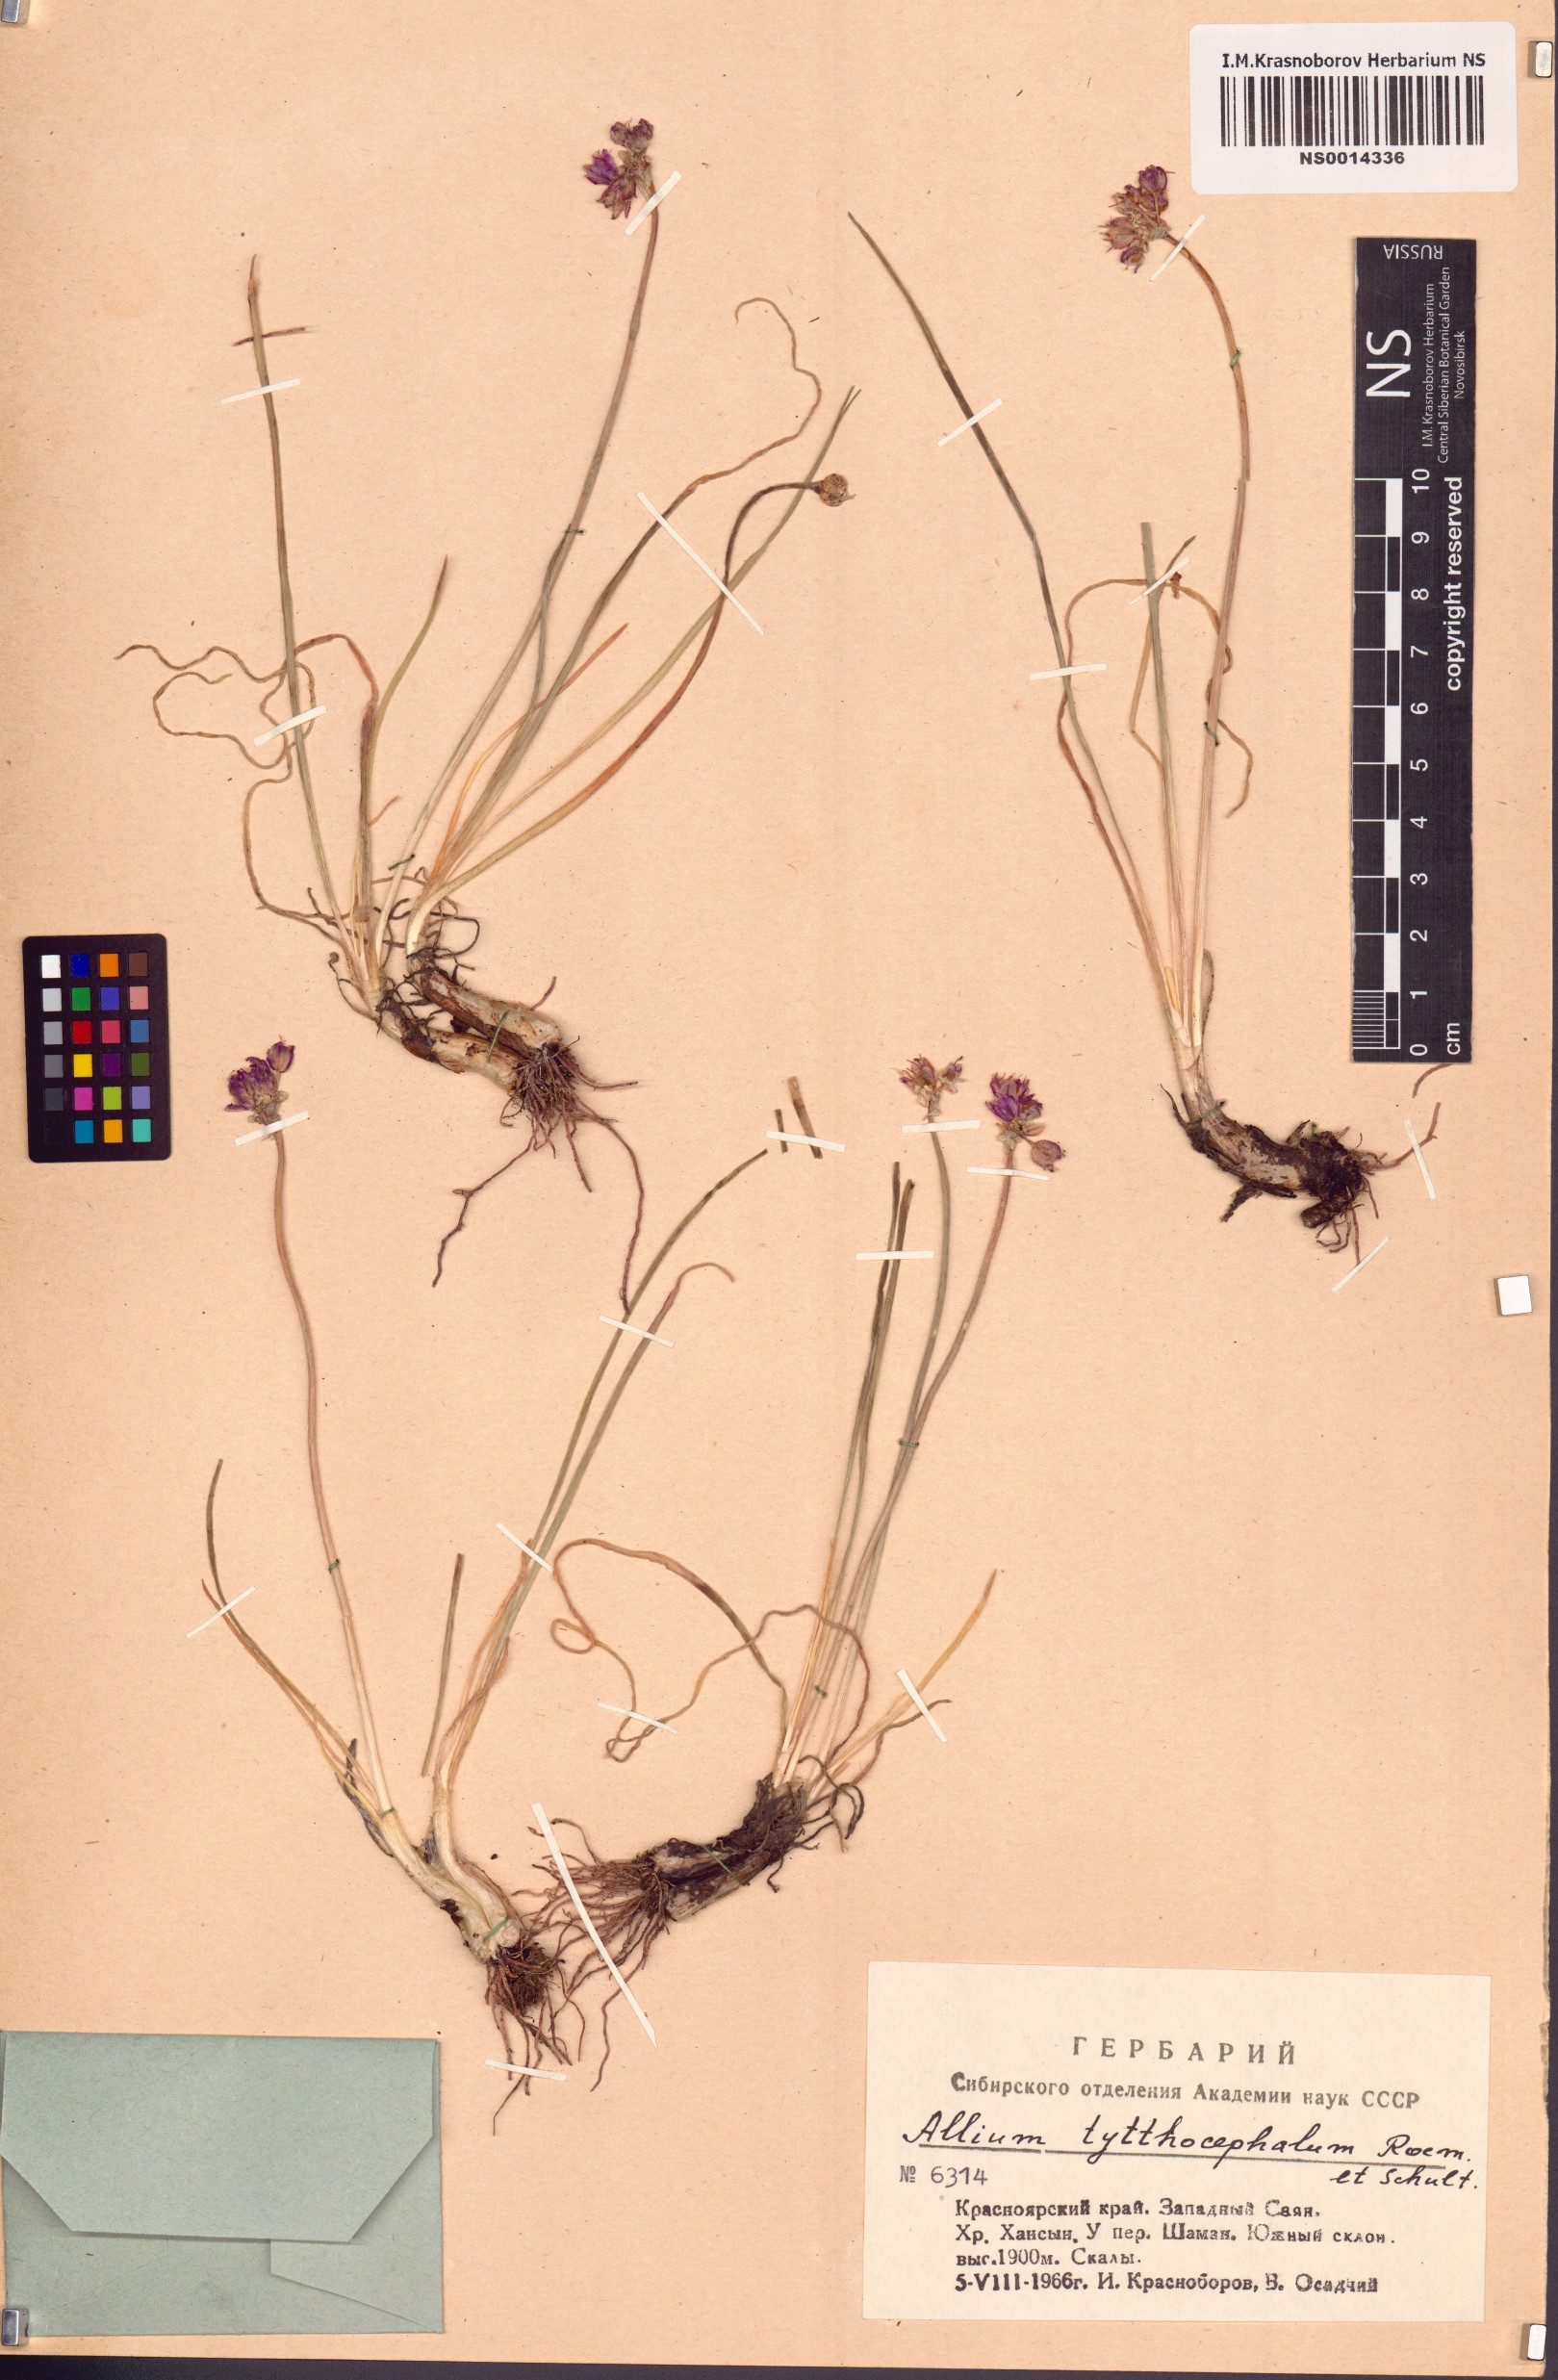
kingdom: Plantae
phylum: Tracheophyta
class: Liliopsida
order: Asparagales
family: Amaryllidaceae
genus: Allium
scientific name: Allium tytthocephalum
